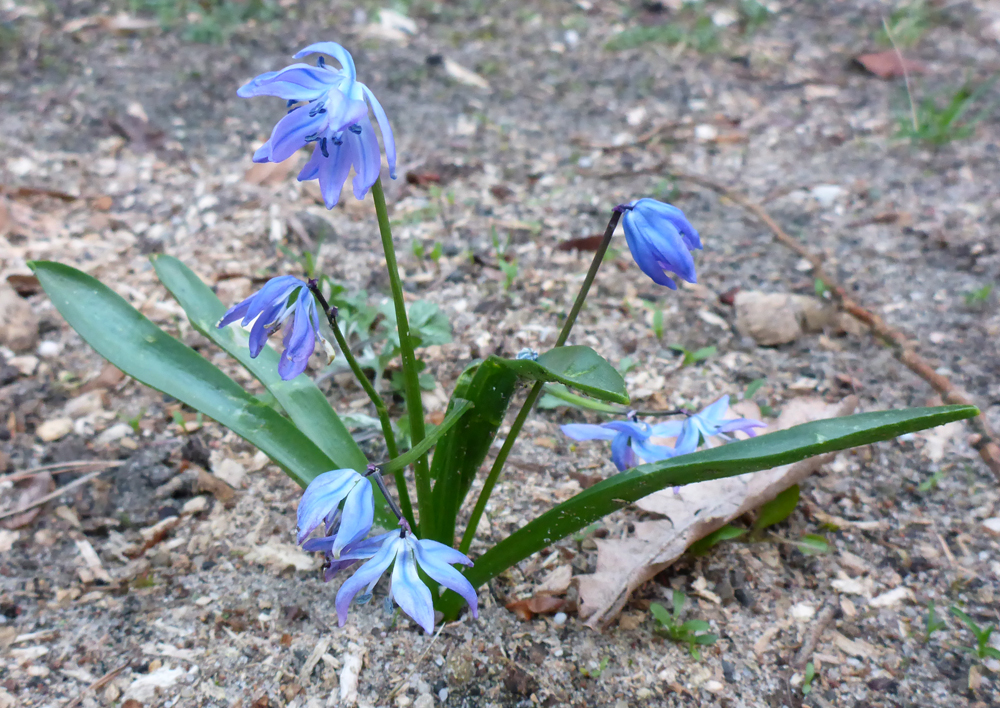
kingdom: Plantae
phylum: Tracheophyta
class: Liliopsida
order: Asparagales
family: Asparagaceae
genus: Scilla
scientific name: Scilla siberica
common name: Siberian squill
